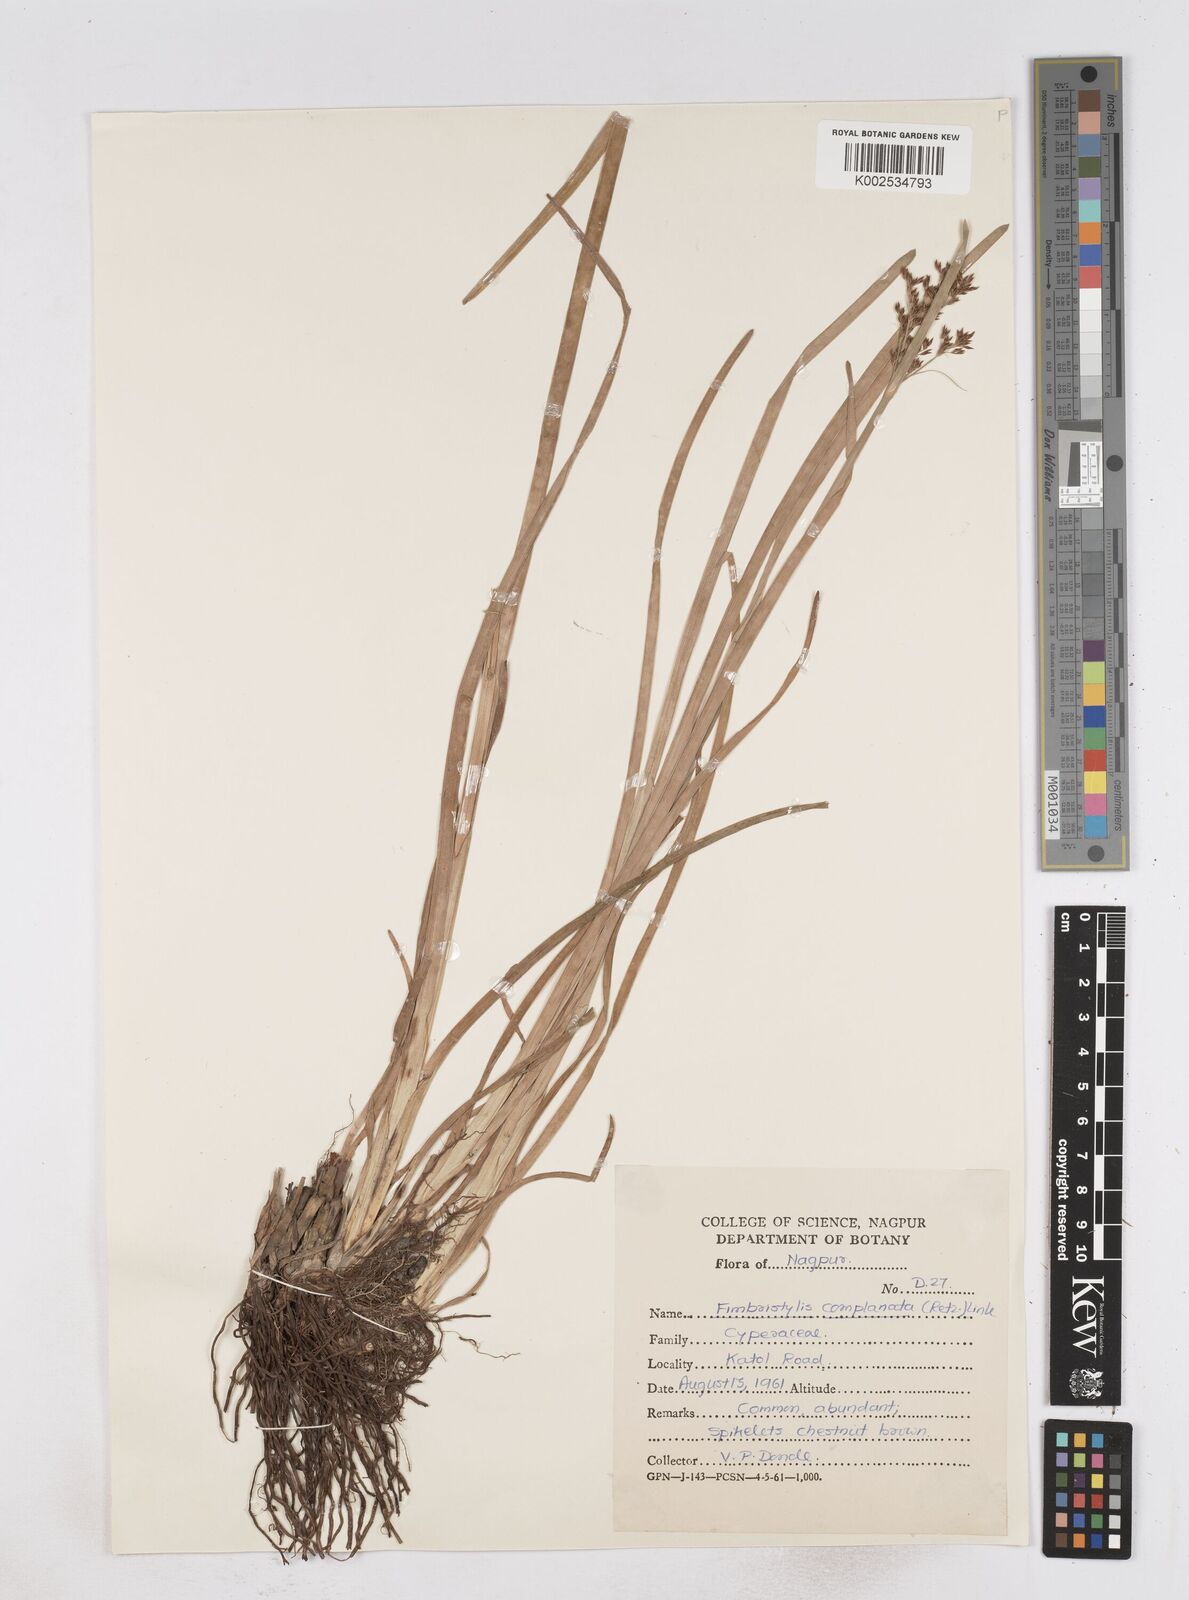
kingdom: Plantae
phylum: Tracheophyta
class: Liliopsida
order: Poales
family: Cyperaceae
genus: Fimbristylis
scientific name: Fimbristylis complanata
